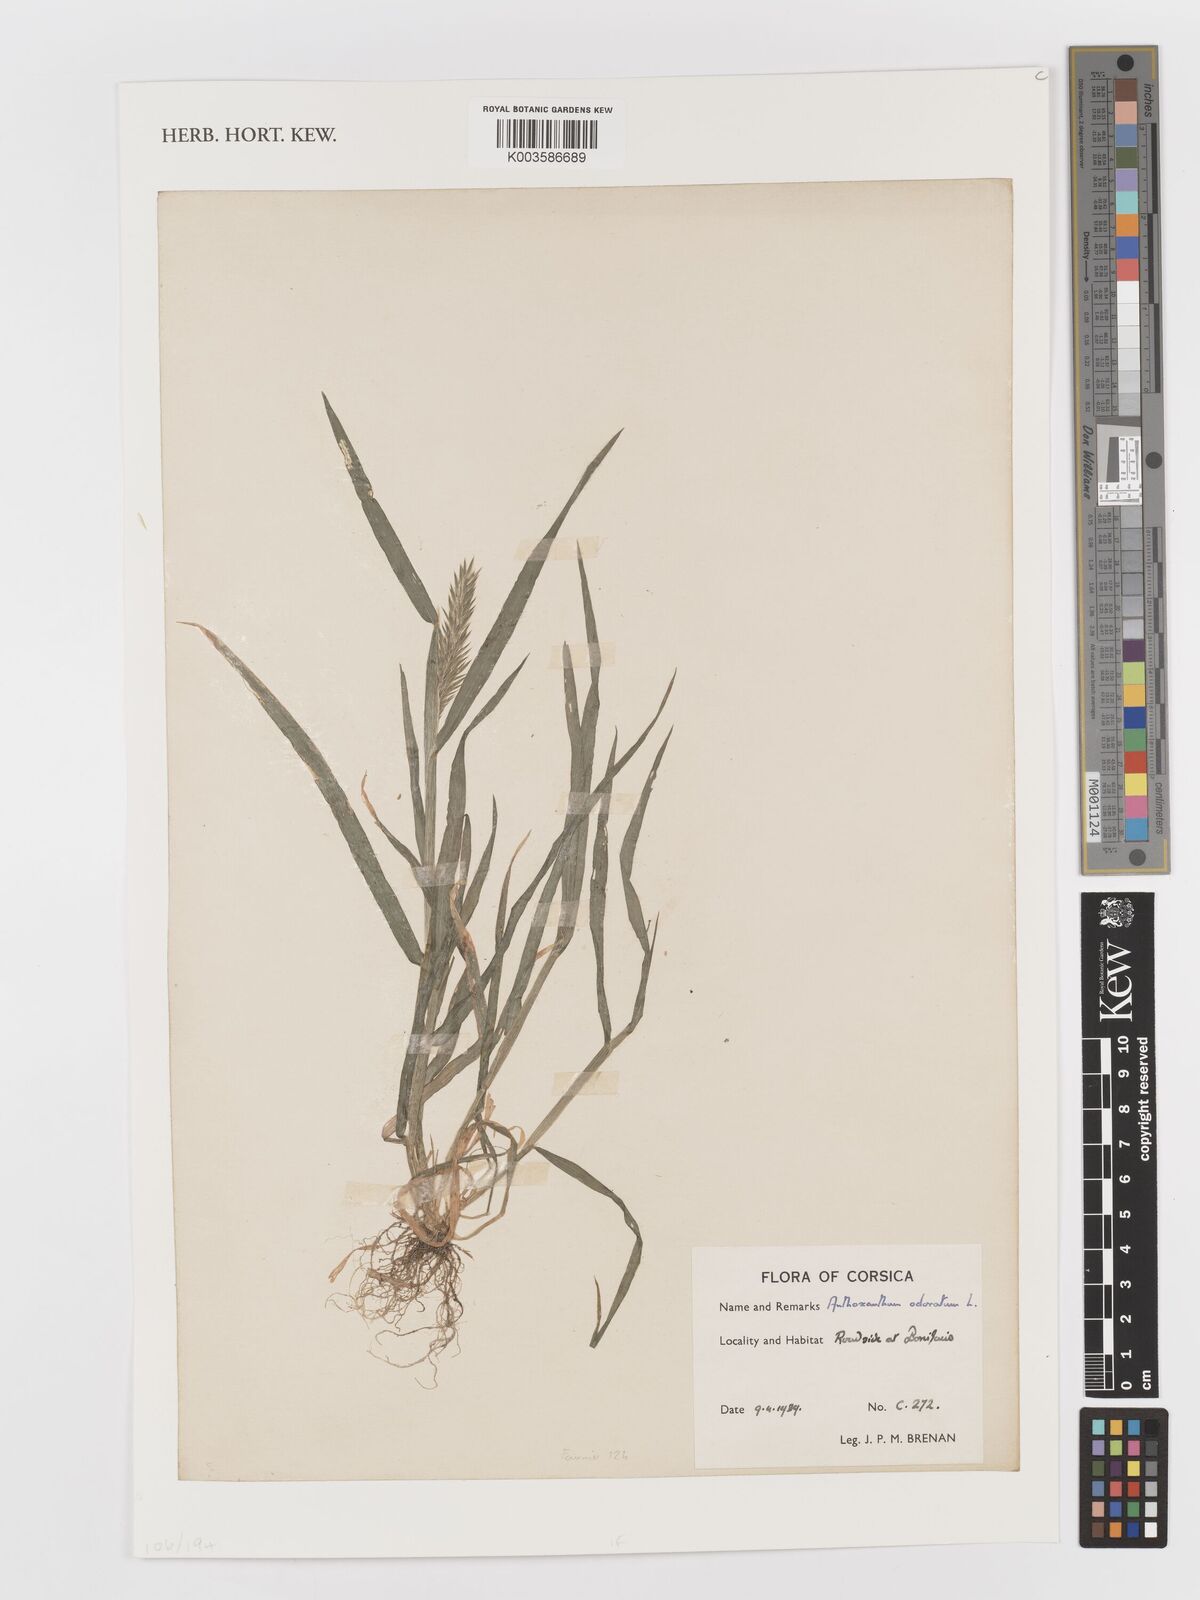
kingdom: Plantae
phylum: Tracheophyta
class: Liliopsida
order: Poales
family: Poaceae
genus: Anthoxanthum
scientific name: Anthoxanthum odoratum
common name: Sweet vernalgrass
